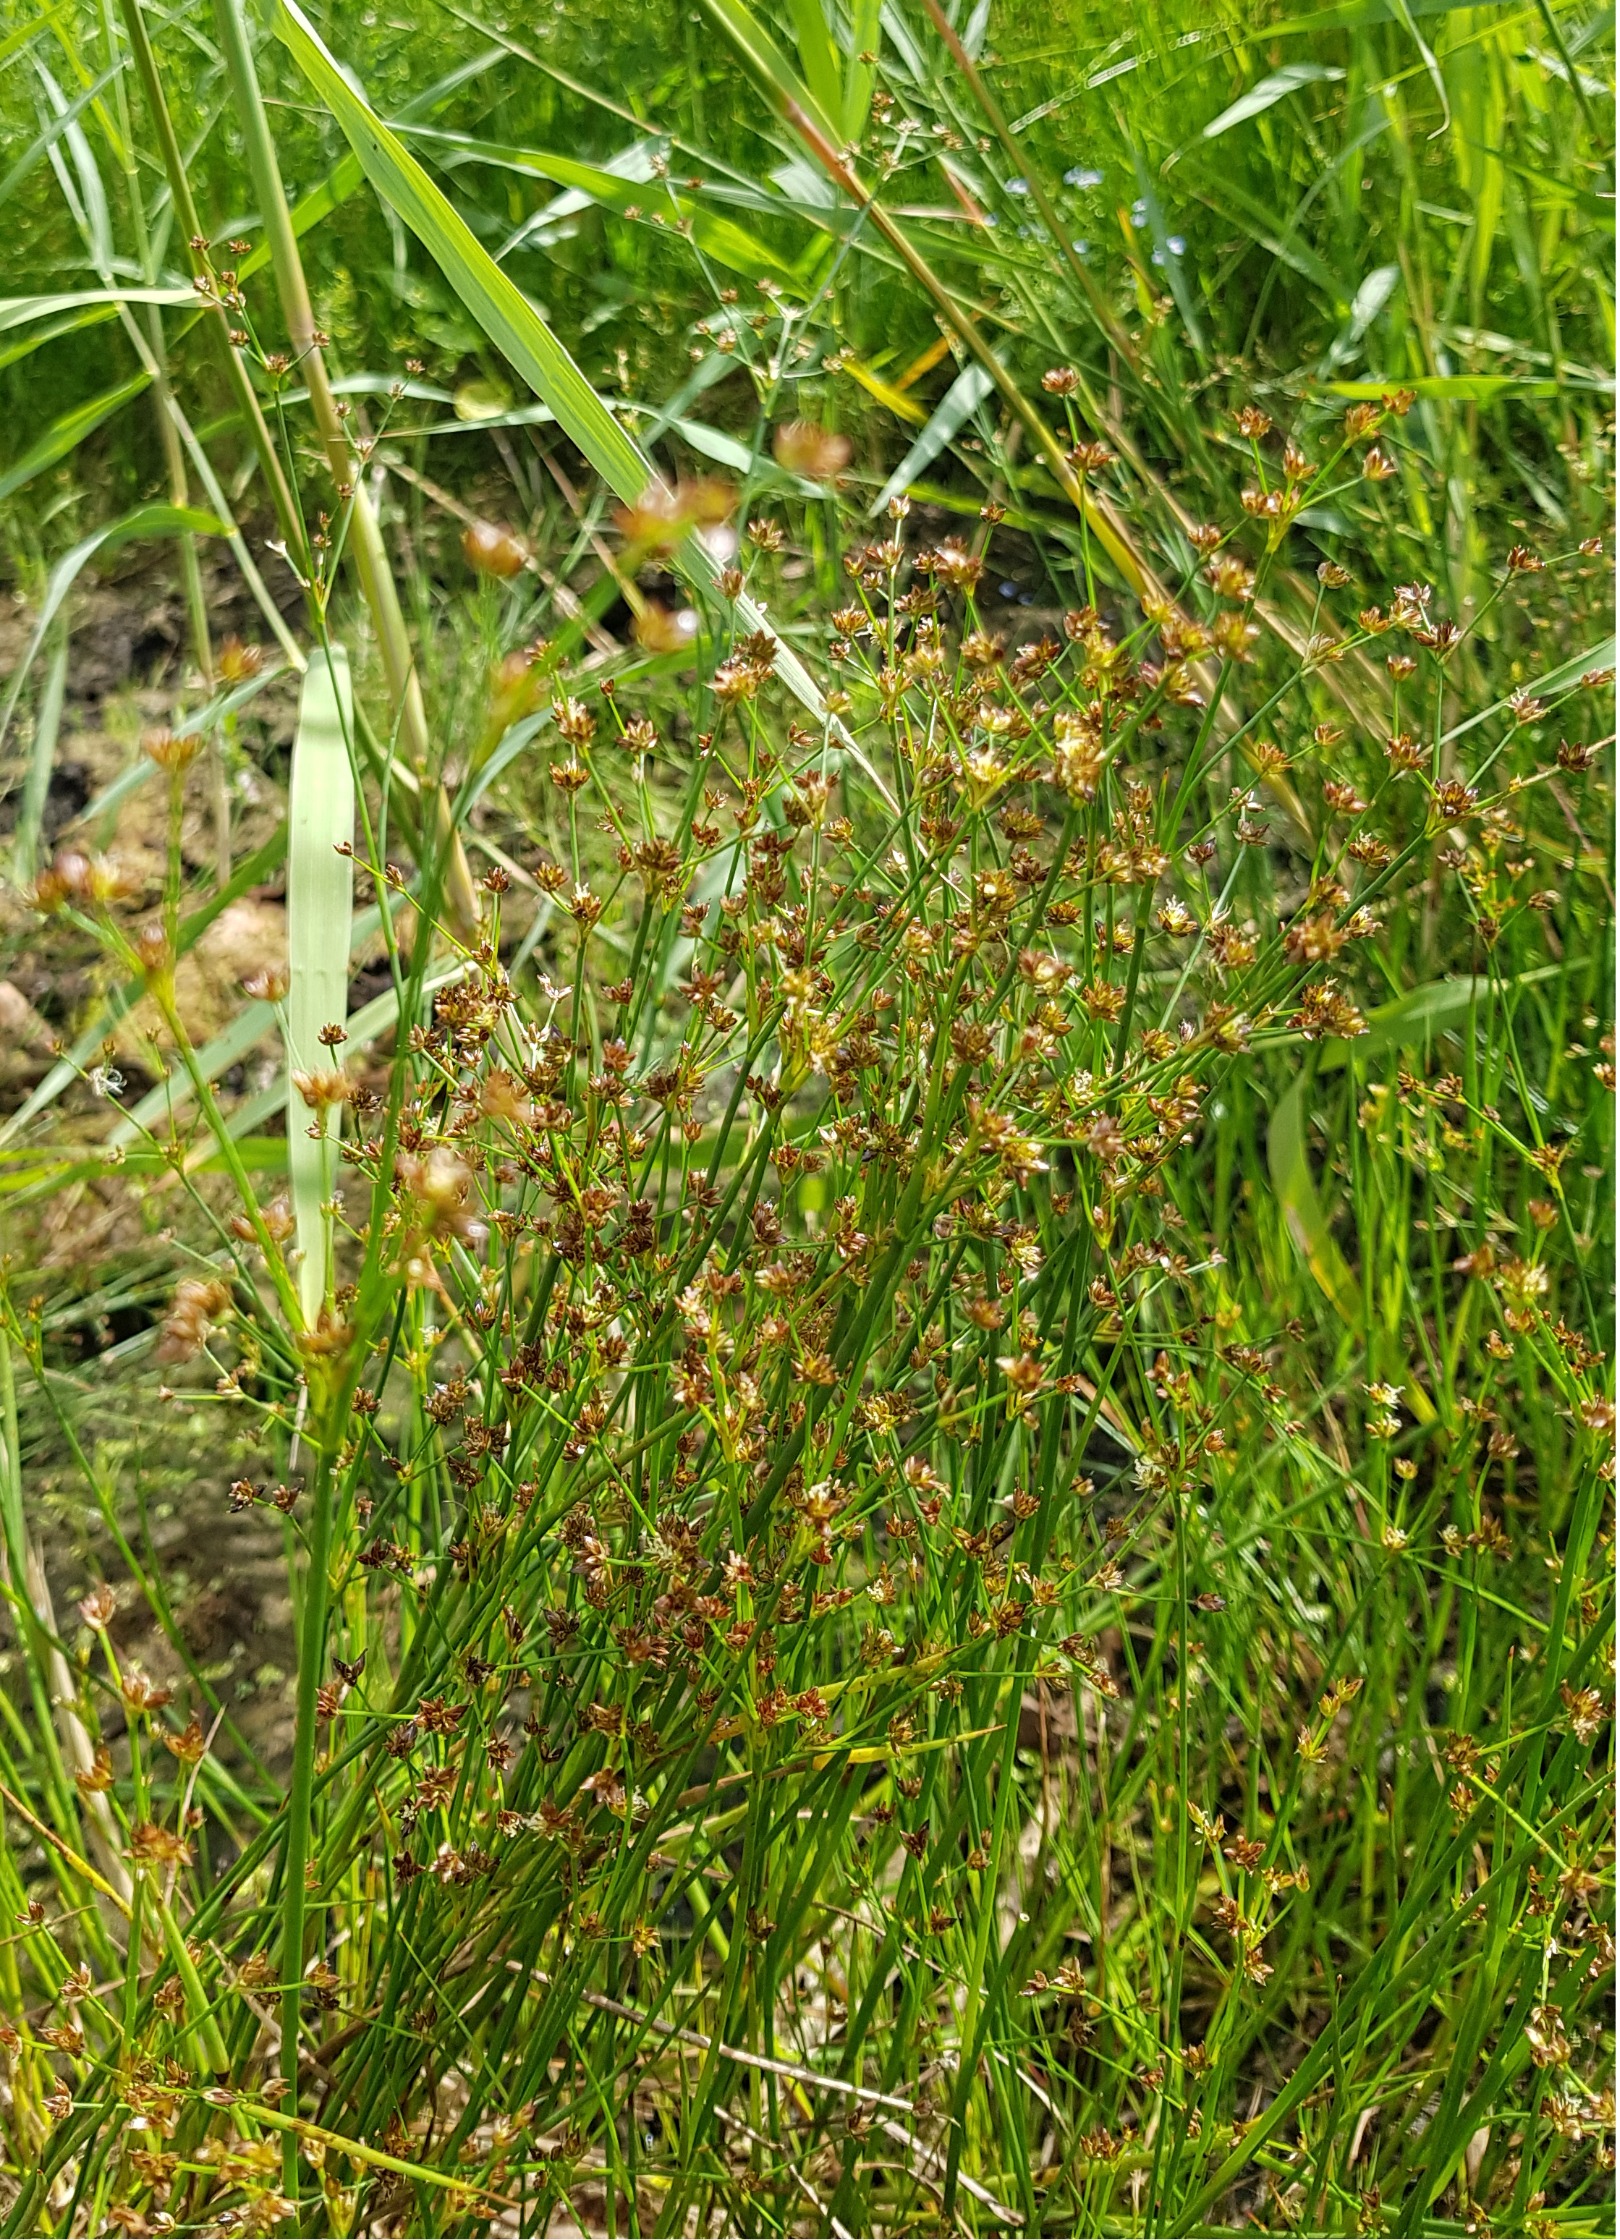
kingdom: Plantae
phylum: Tracheophyta
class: Liliopsida
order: Poales
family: Juncaceae
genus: Juncus
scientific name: Juncus articulatus
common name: Glanskapslet siv
